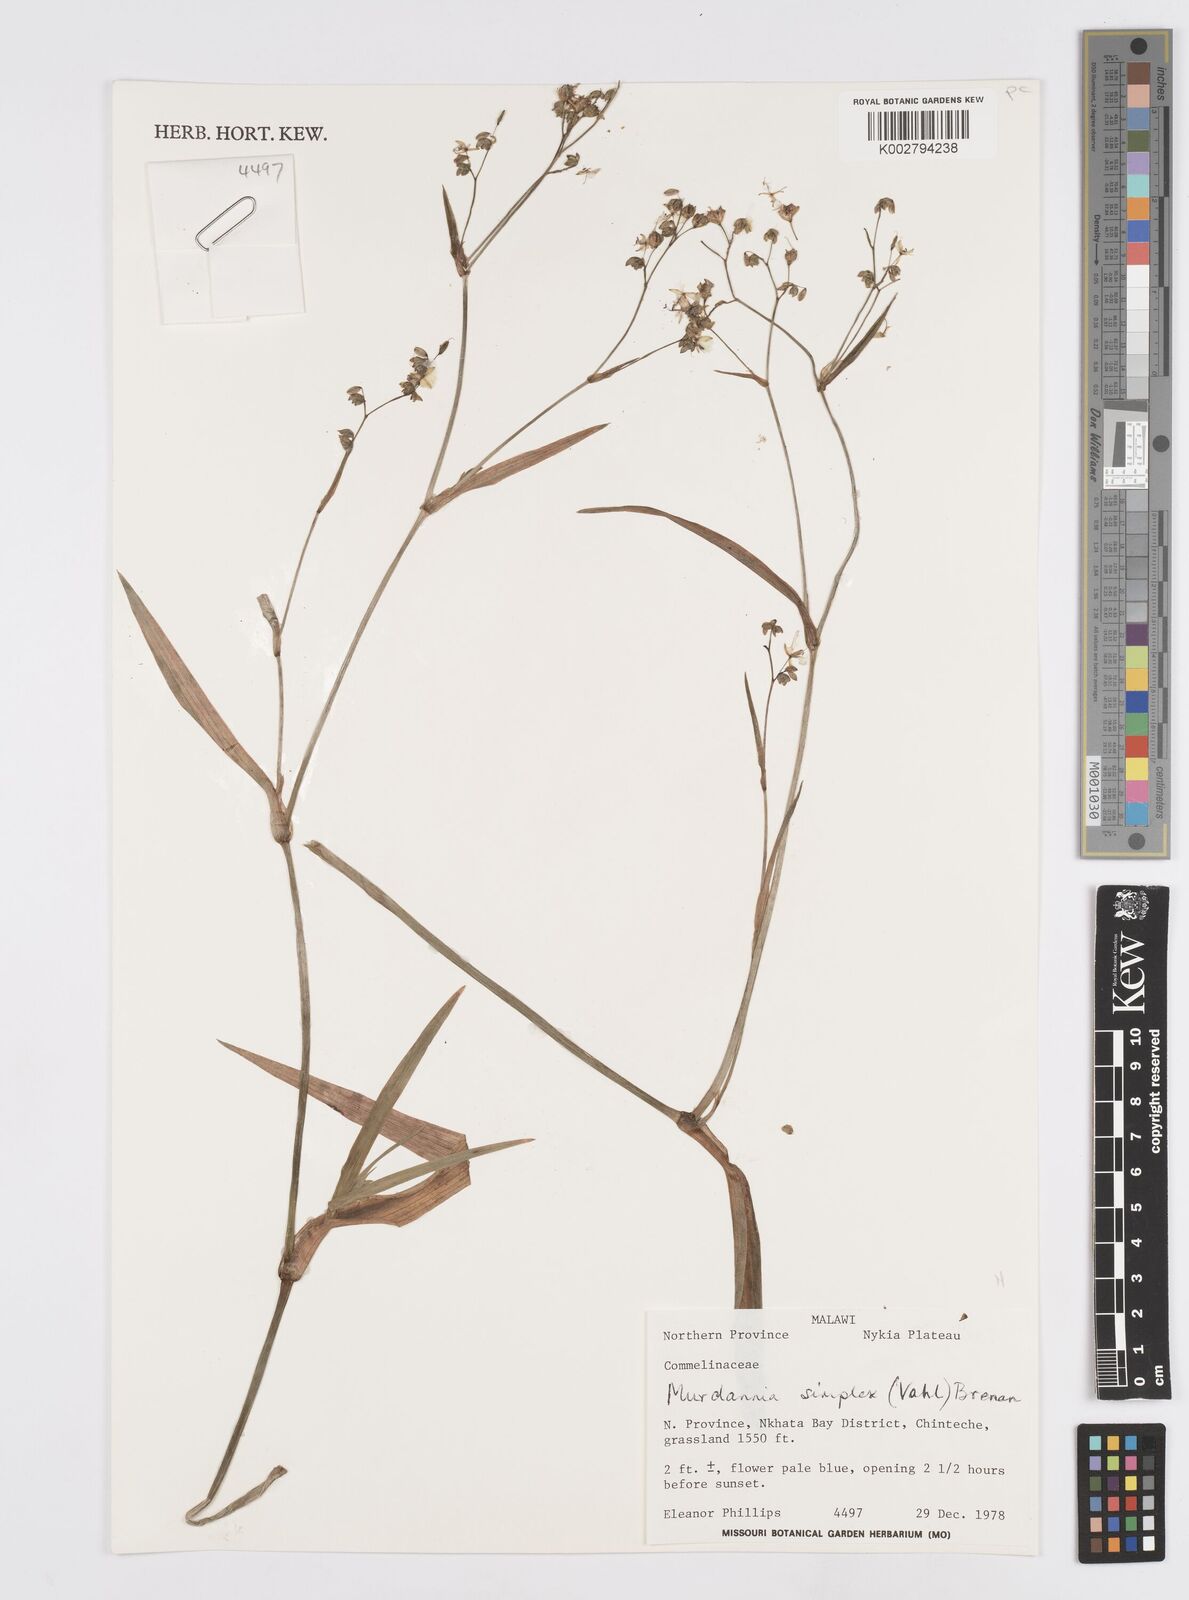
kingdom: Plantae
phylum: Tracheophyta
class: Liliopsida
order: Commelinales
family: Commelinaceae
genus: Murdannia
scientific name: Murdannia simplex
